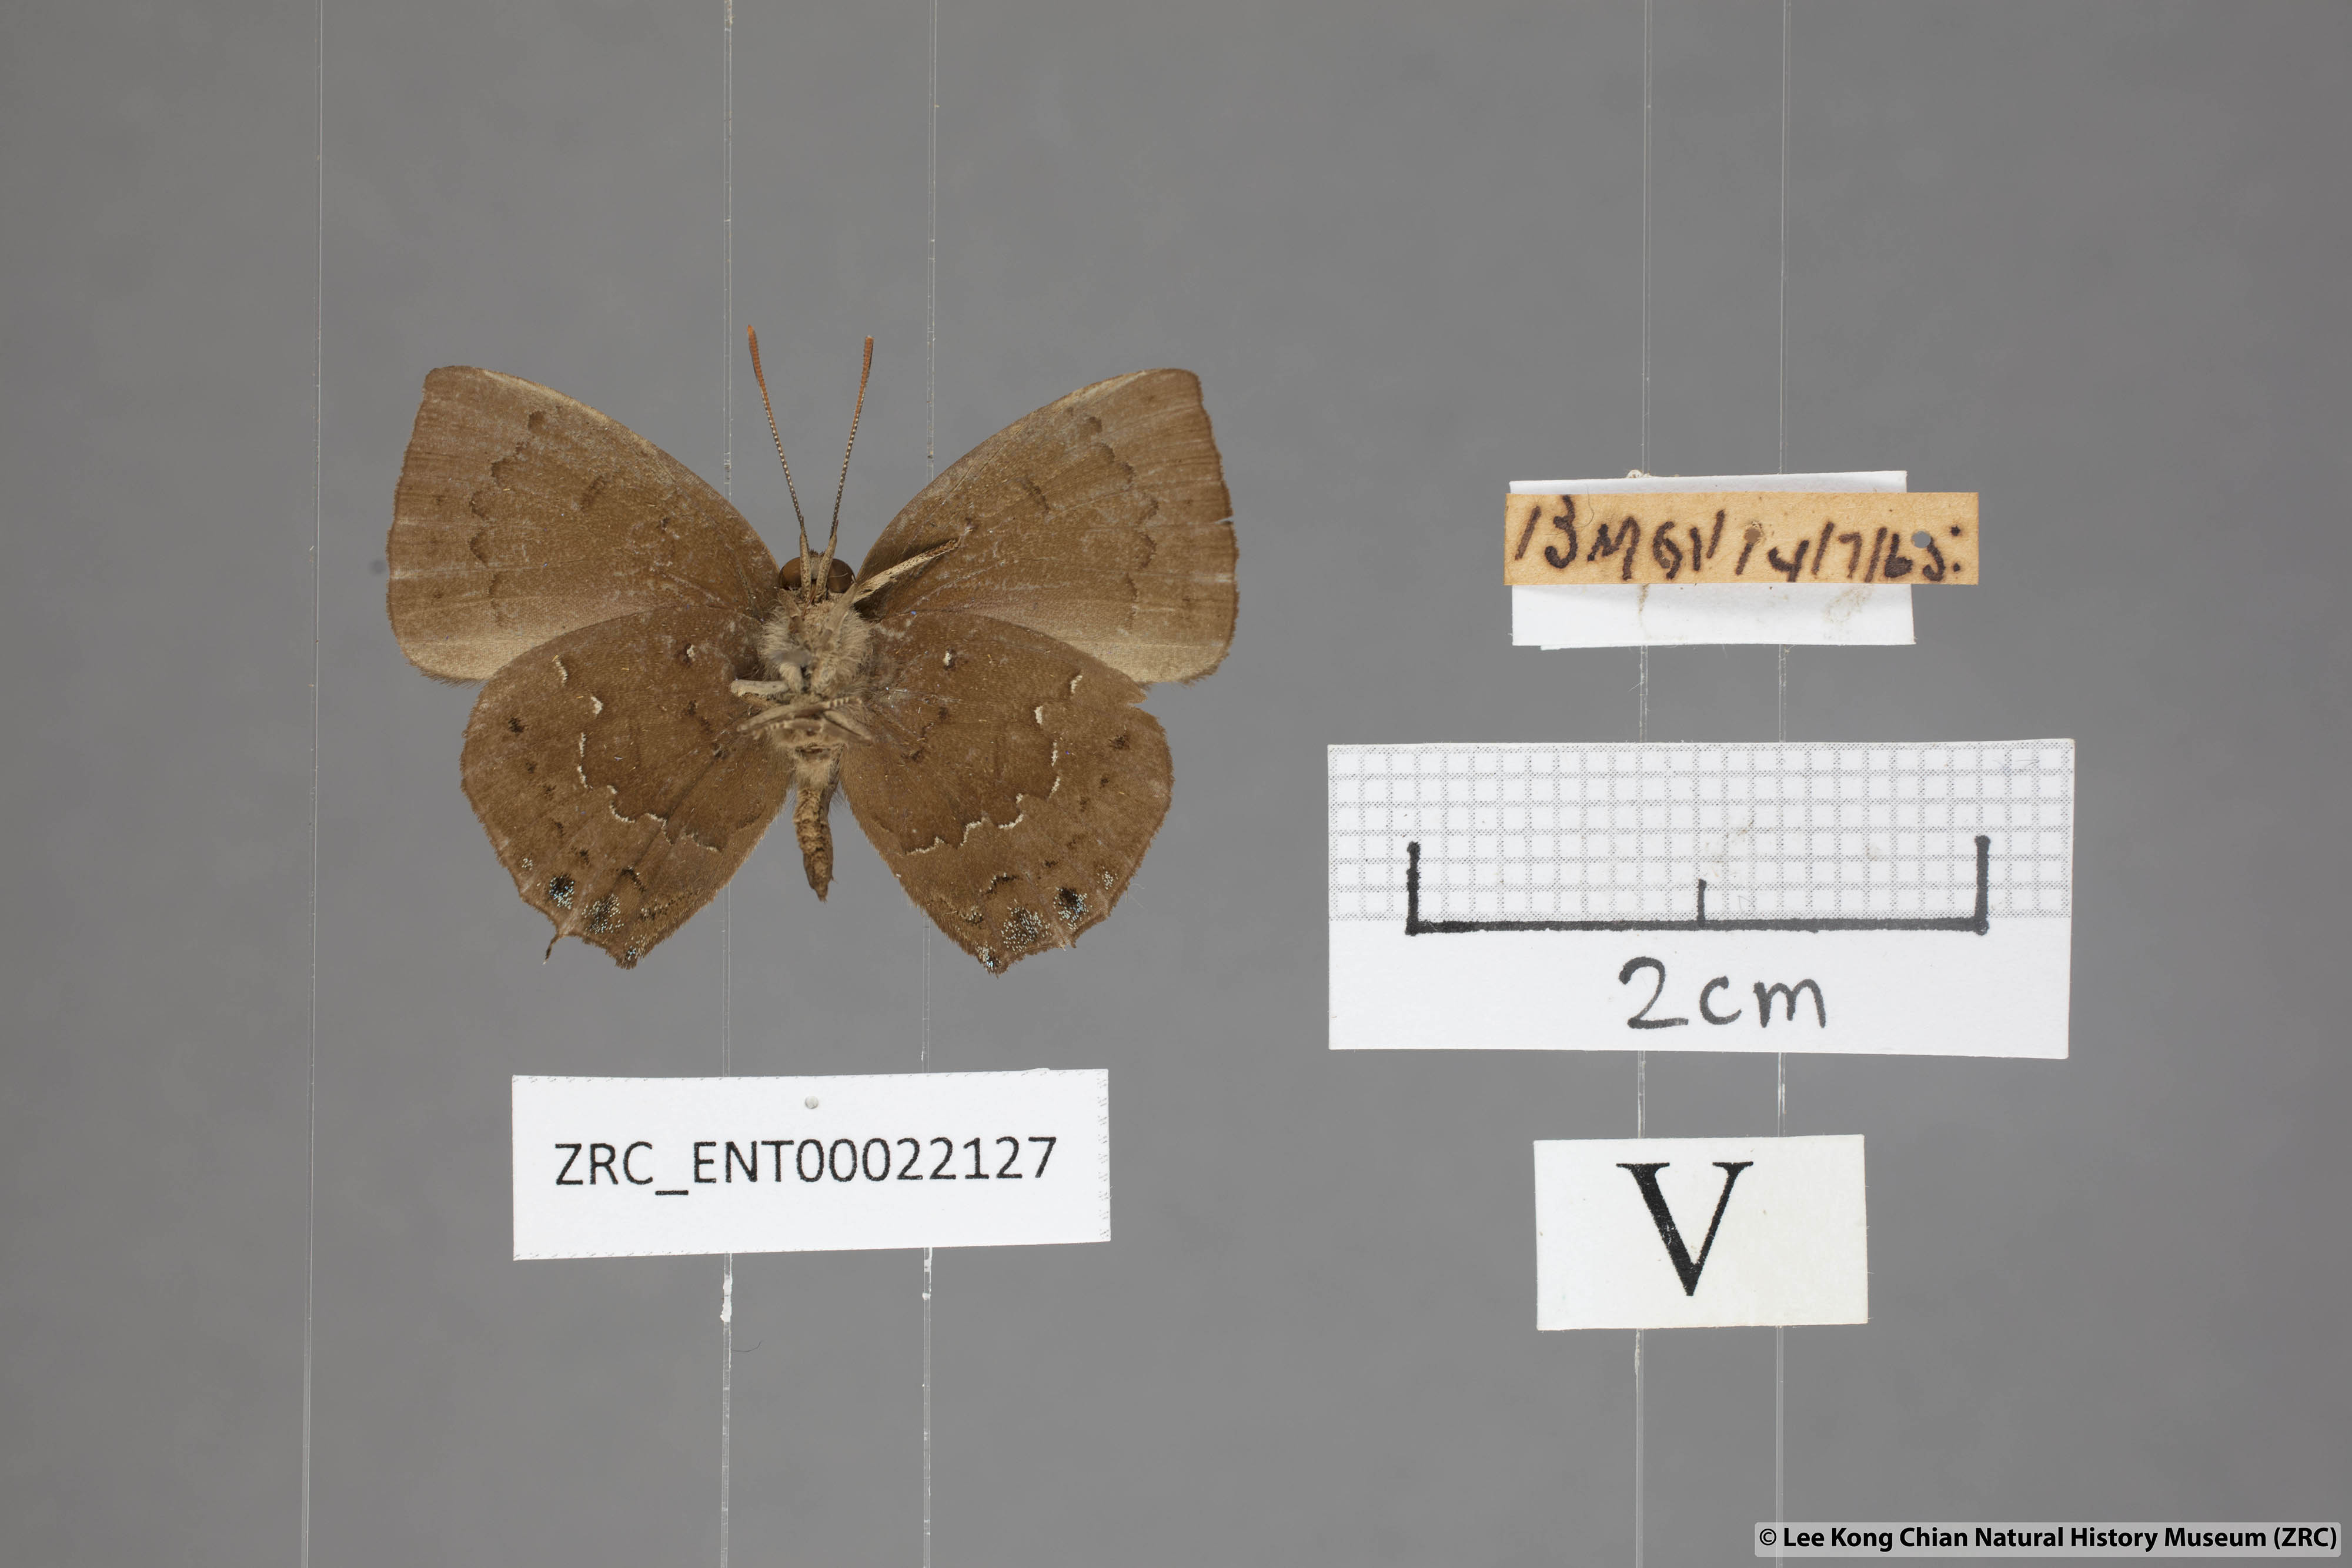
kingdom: Animalia
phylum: Arthropoda
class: Insecta
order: Lepidoptera
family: Lycaenidae
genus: Surendra
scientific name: Surendra vivarna
